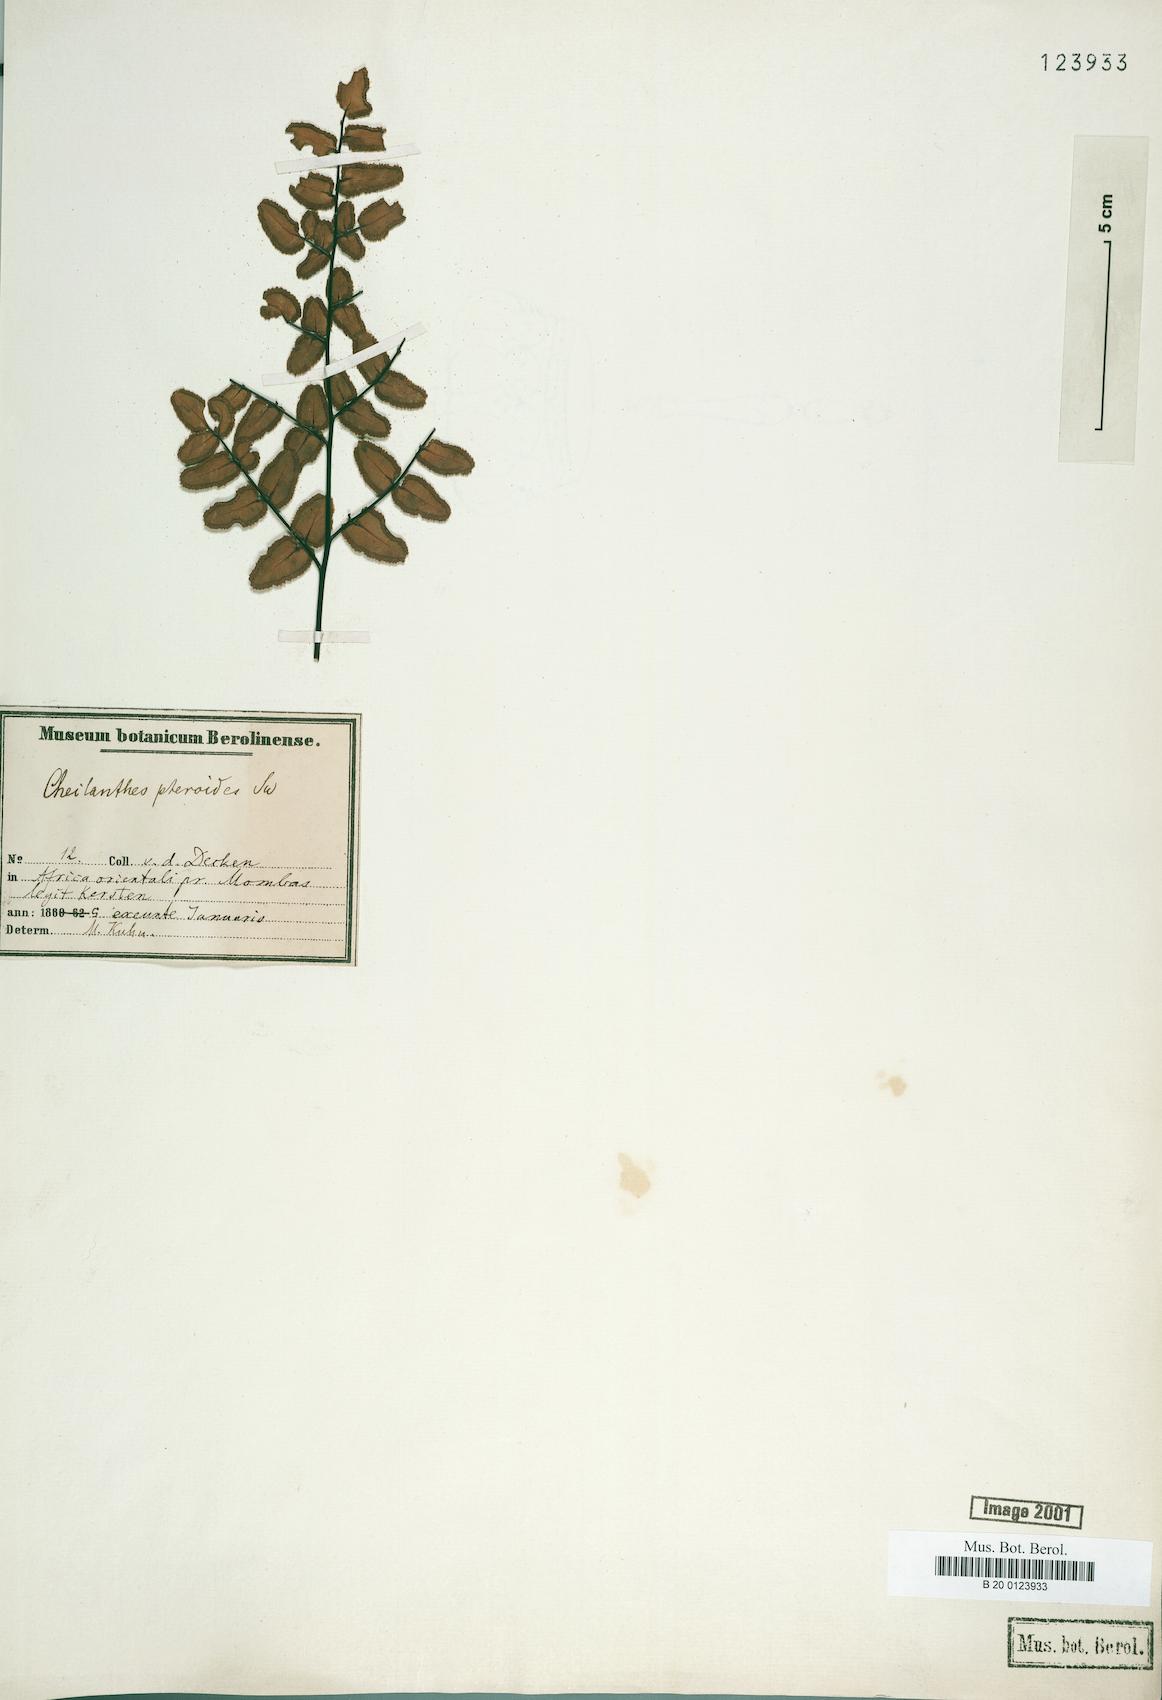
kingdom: Plantae
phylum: Tracheophyta
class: Polypodiopsida
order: Polypodiales
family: Pteridaceae
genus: Pellaea
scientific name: Pellaea pectiniformis
